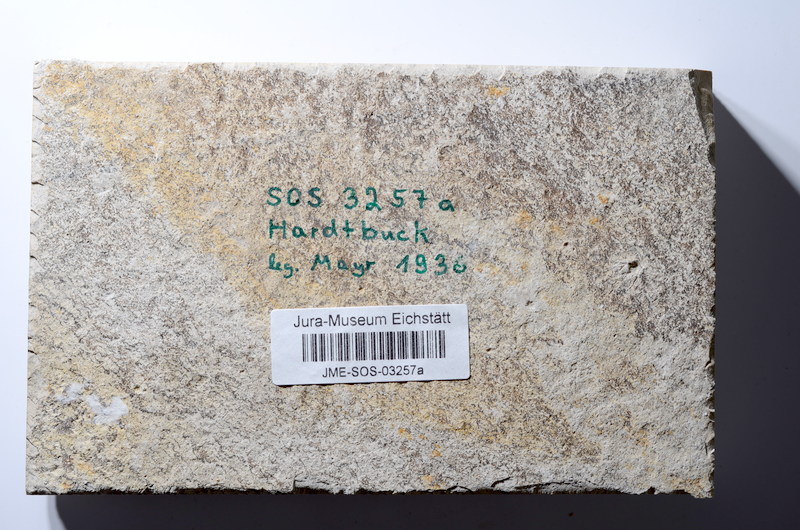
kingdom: Animalia
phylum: Chordata
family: Macrosemiidae
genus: Macrosemius
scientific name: Macrosemius rostratus
